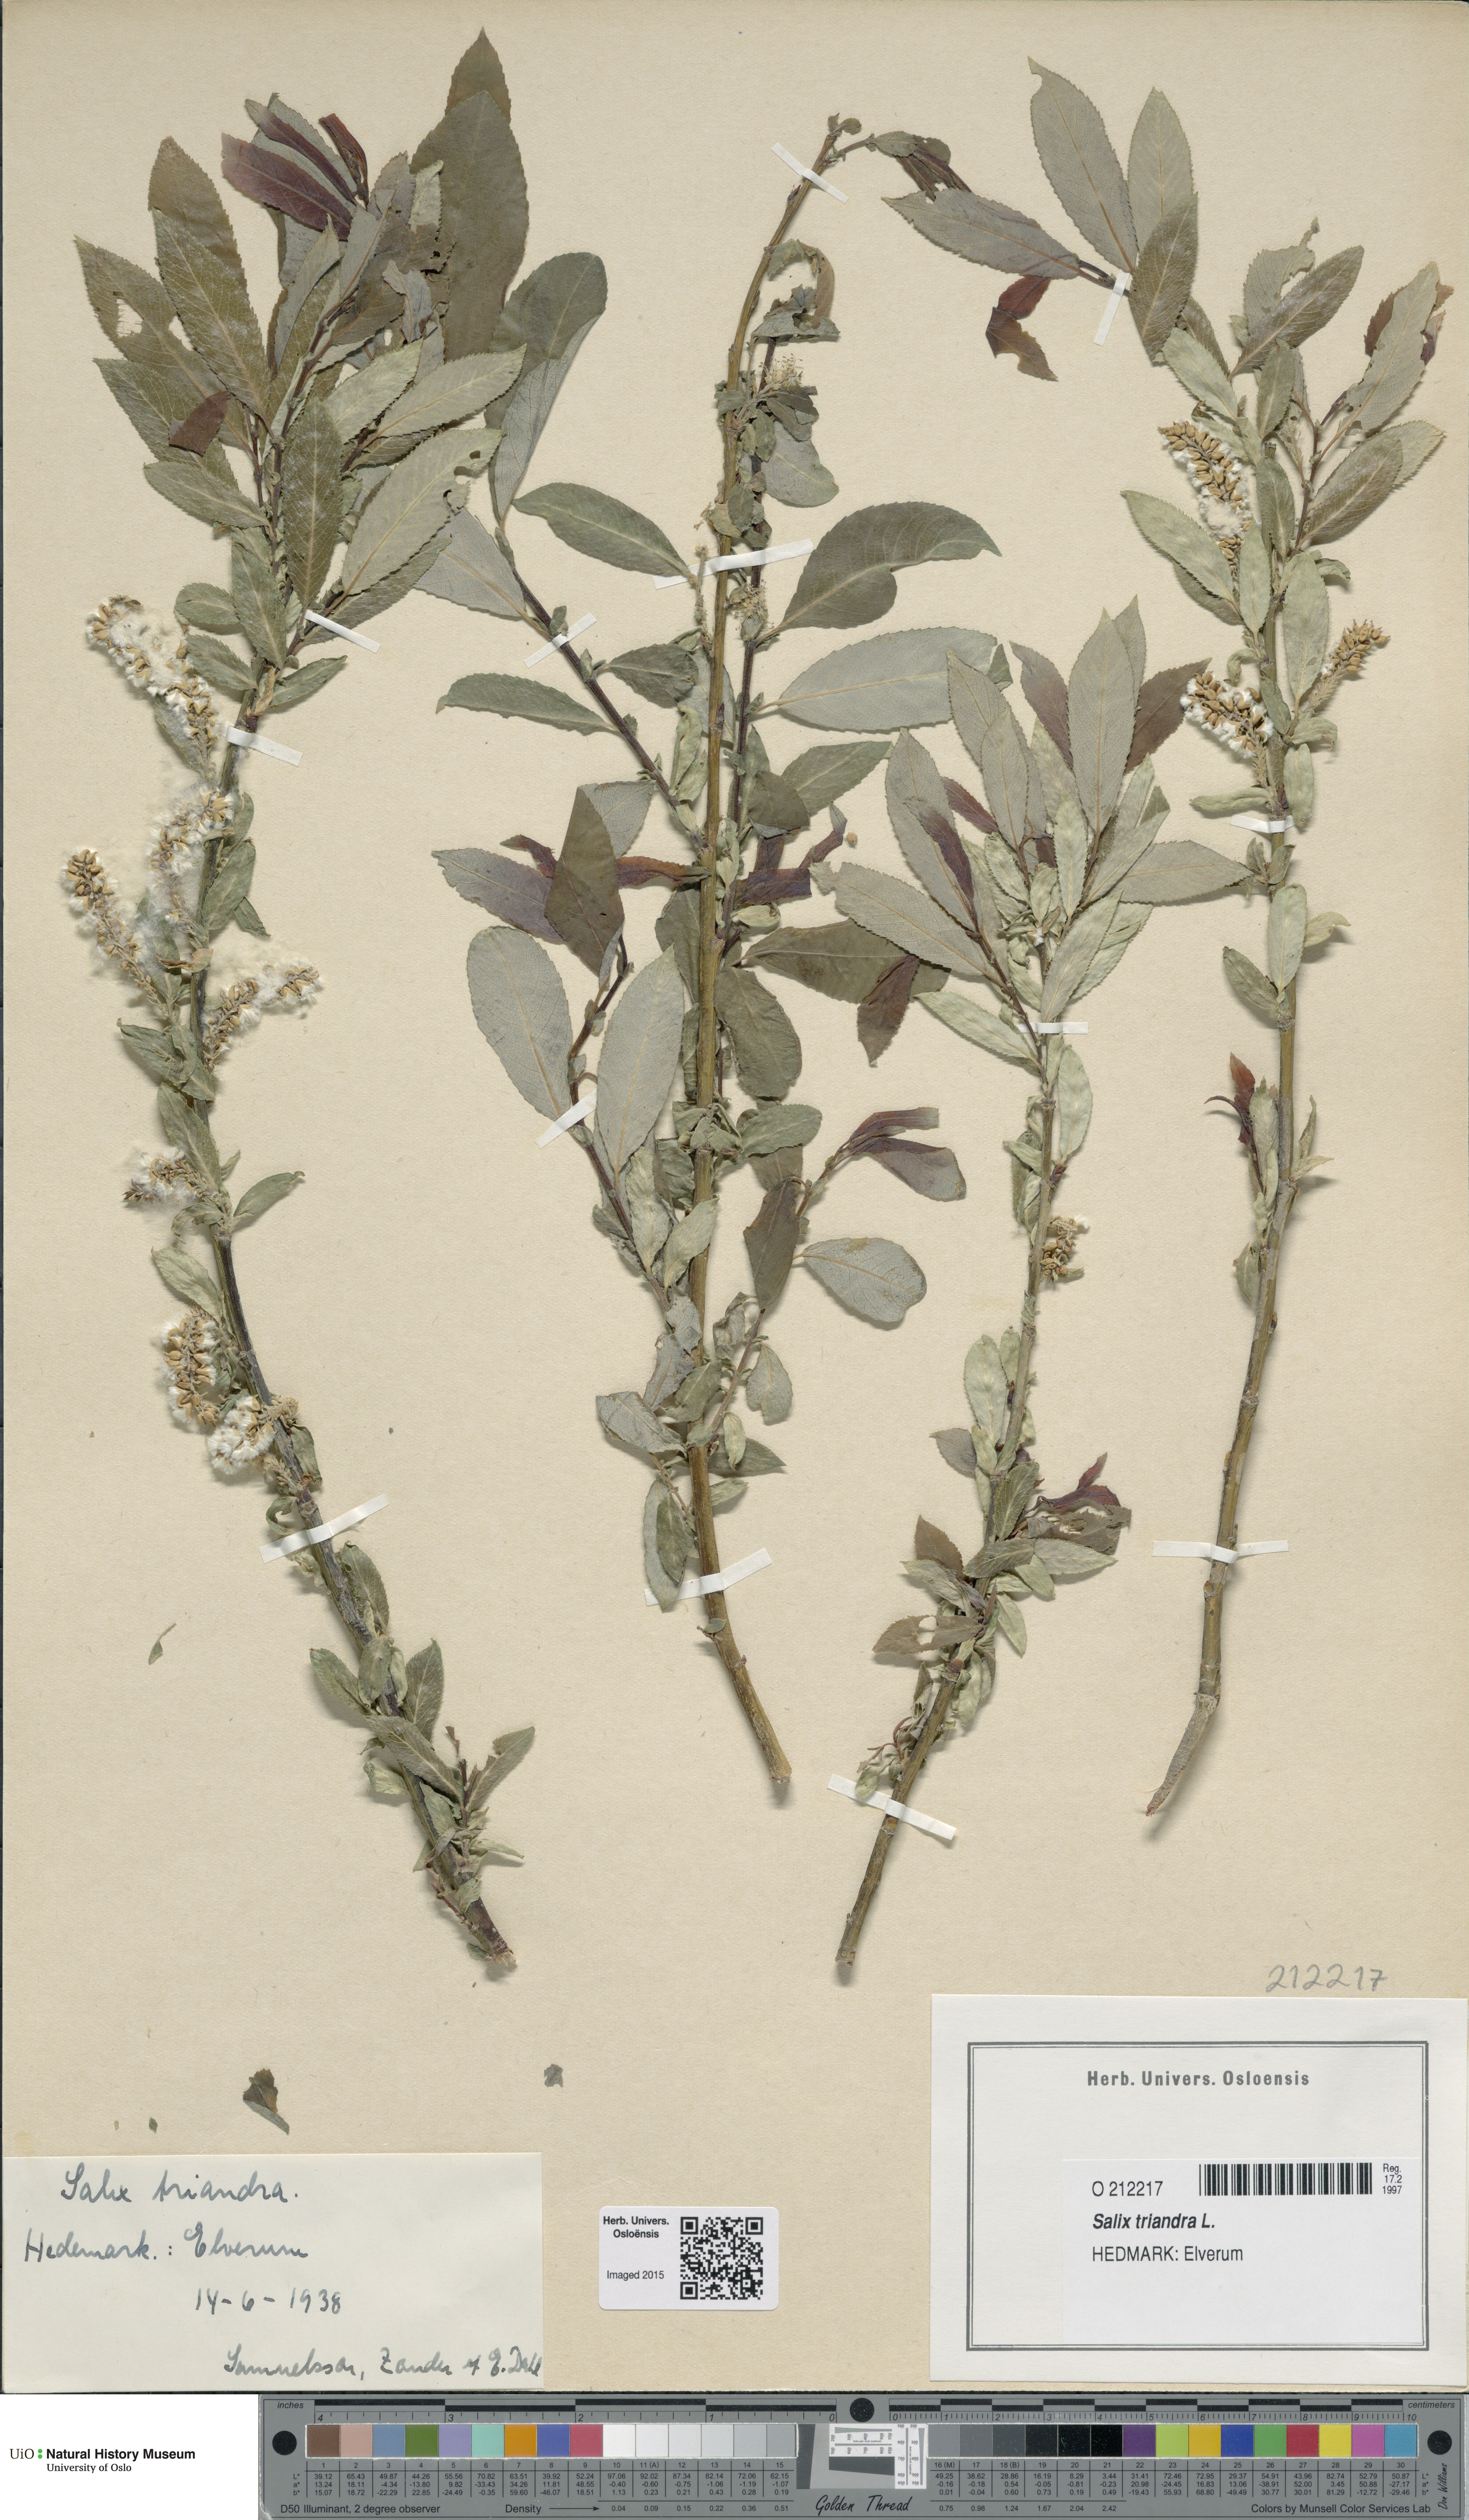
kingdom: Plantae
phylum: Tracheophyta
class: Magnoliopsida
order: Malpighiales
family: Salicaceae
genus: Salix
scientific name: Salix triandra
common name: Almond willow
